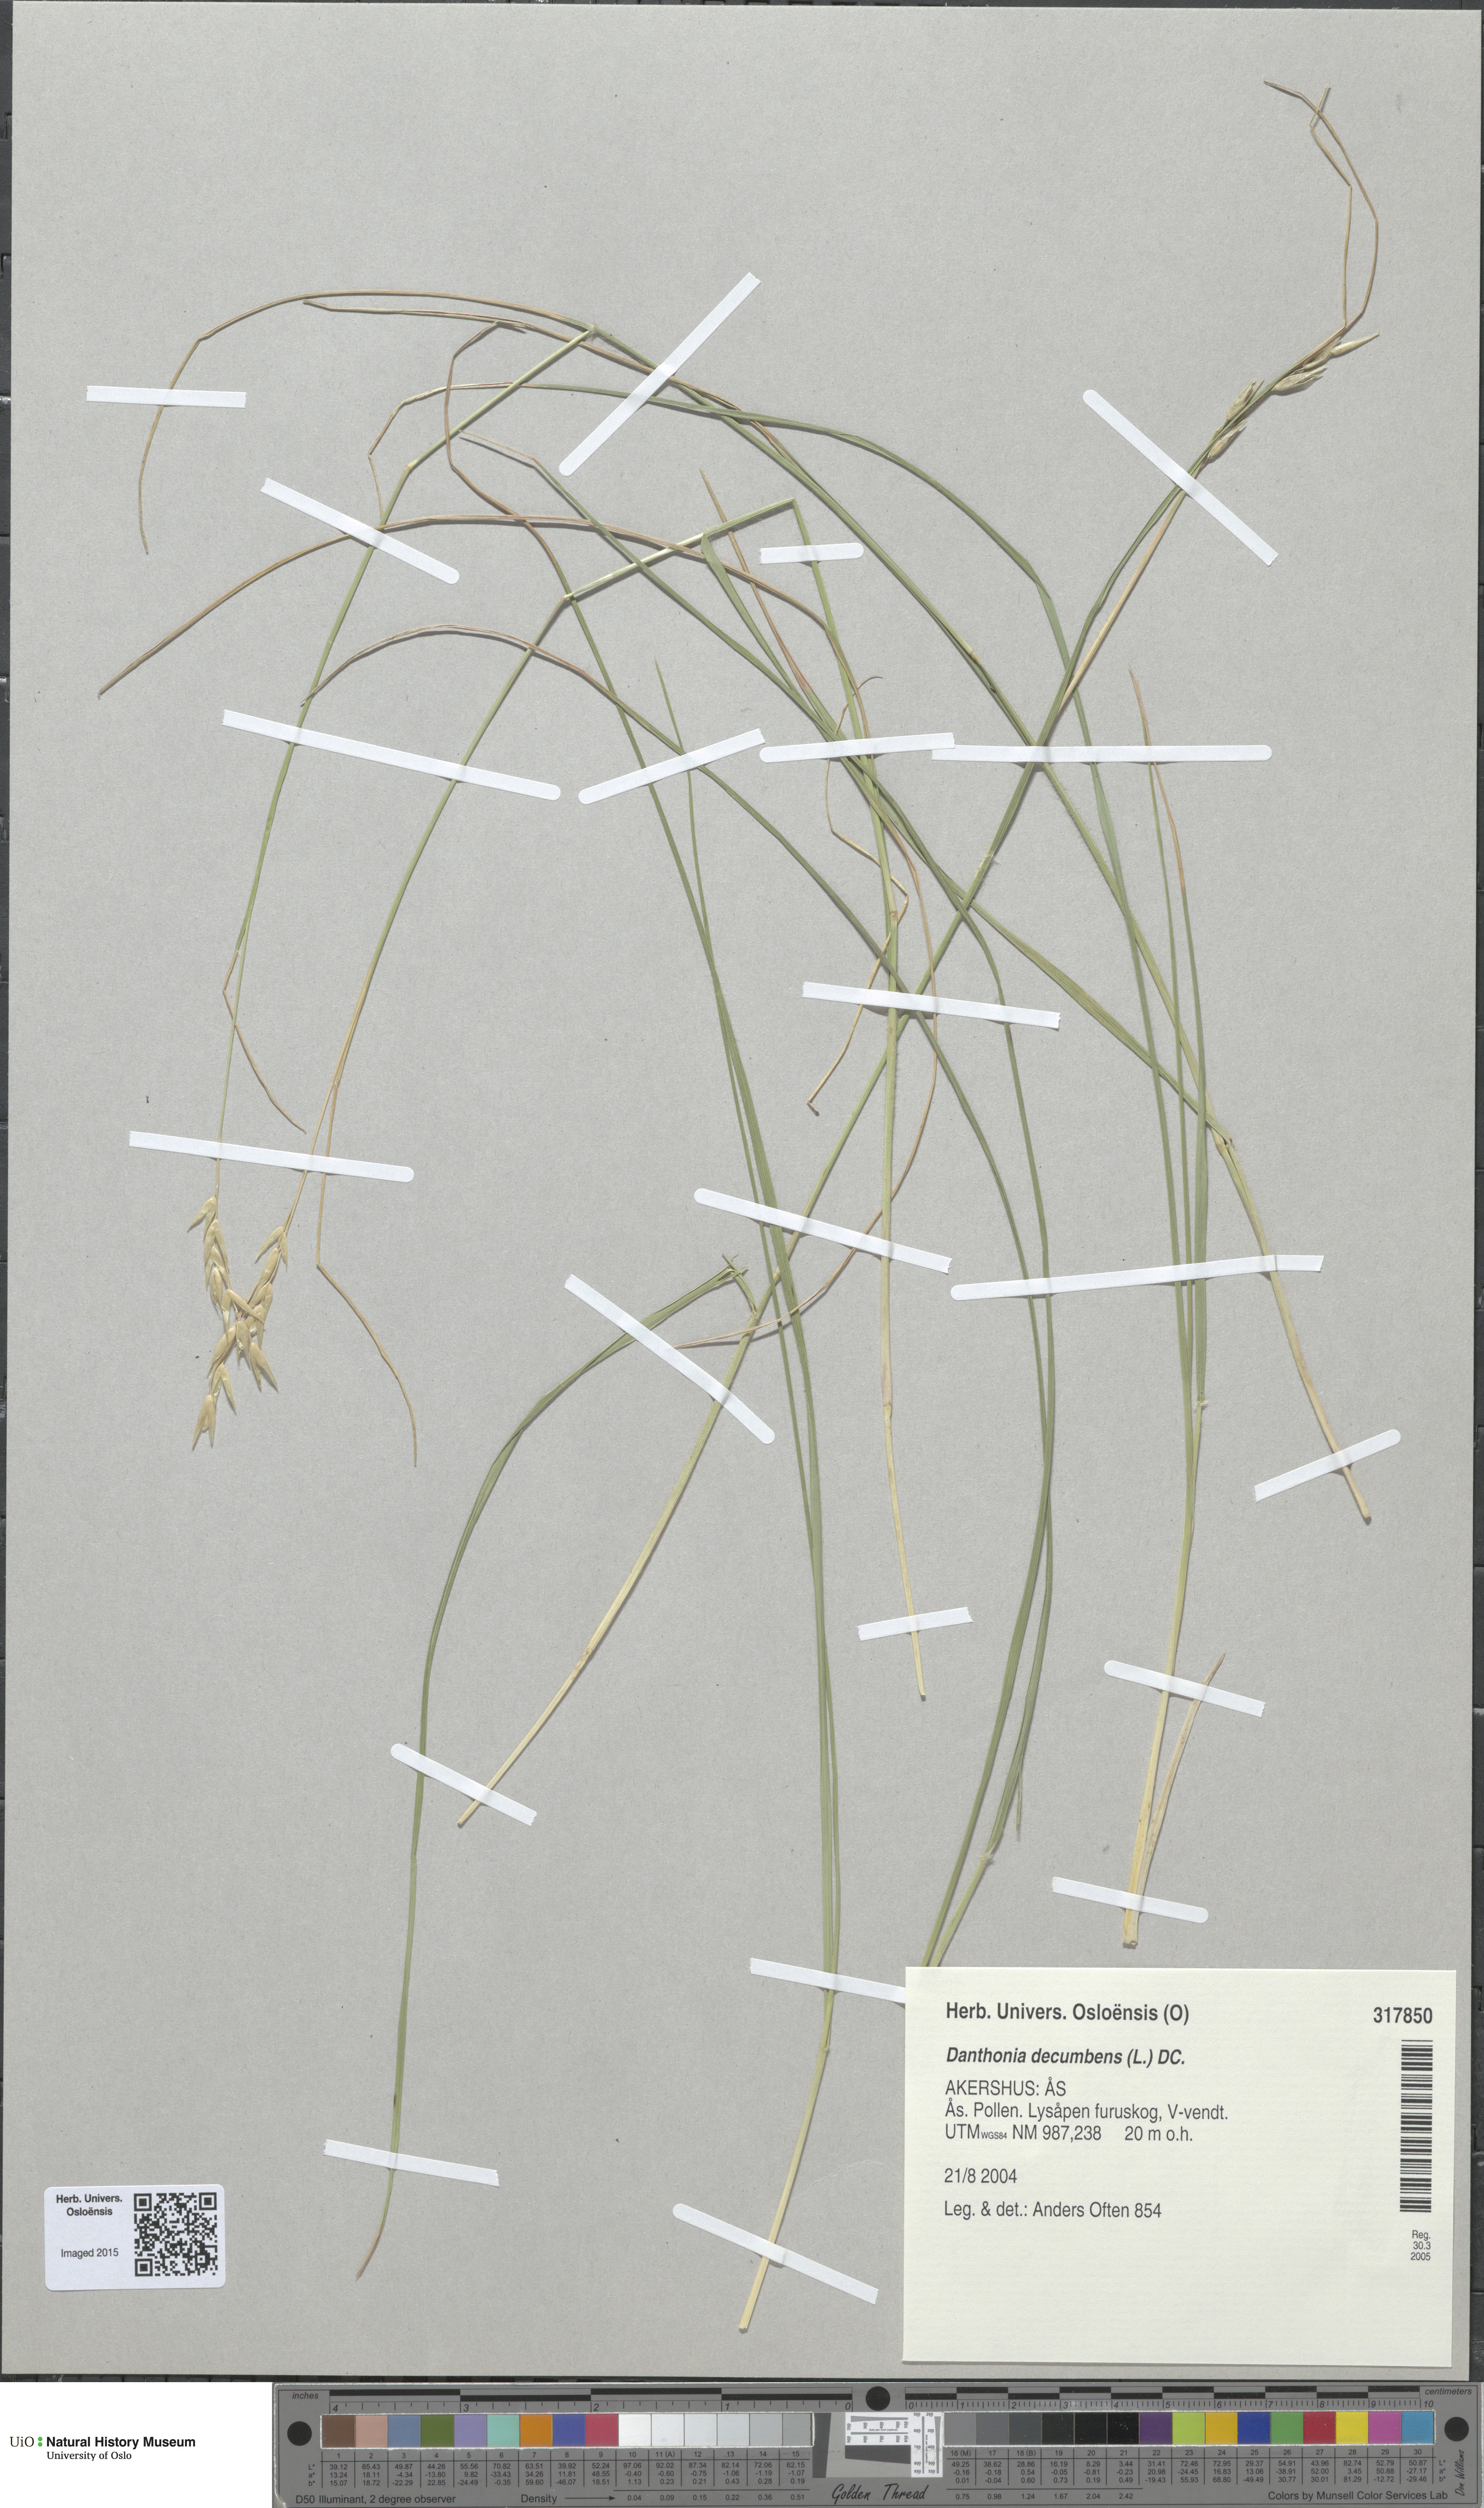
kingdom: Plantae
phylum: Tracheophyta
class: Liliopsida
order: Poales
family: Poaceae
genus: Danthonia
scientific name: Danthonia decumbens
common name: Common heathgrass
